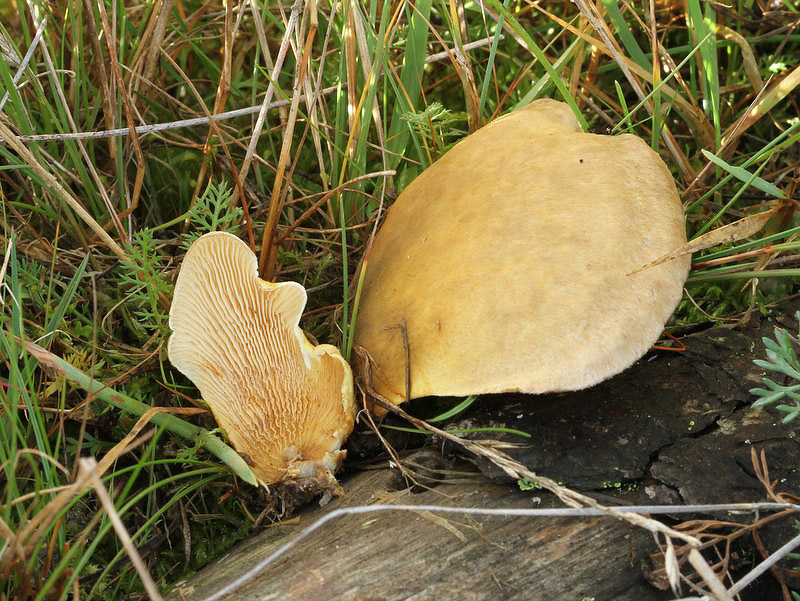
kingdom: Fungi
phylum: Basidiomycota
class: Agaricomycetes
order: Boletales
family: Tapinellaceae
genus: Tapinella
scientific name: Tapinella panuoides
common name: tømmer-viftesvamp
